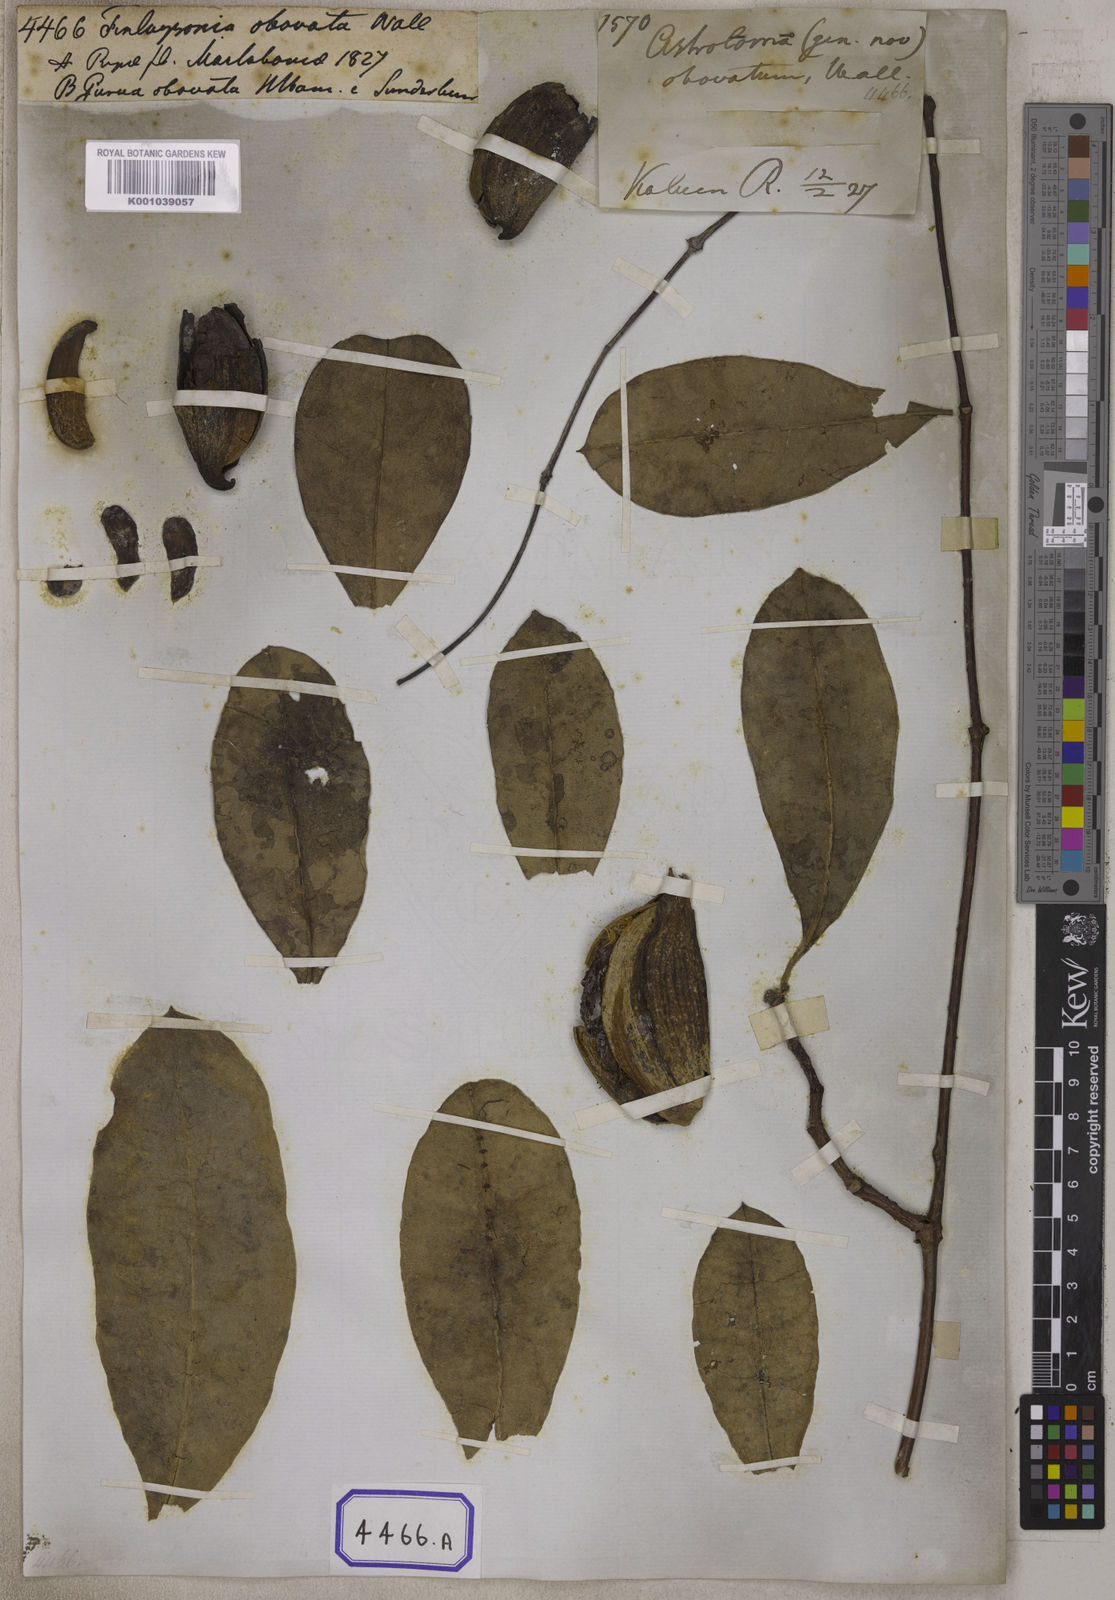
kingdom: Plantae
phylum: Tracheophyta
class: Magnoliopsida
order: Gentianales
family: Apocynaceae
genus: Finlaysonia
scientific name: Finlaysonia obovata
